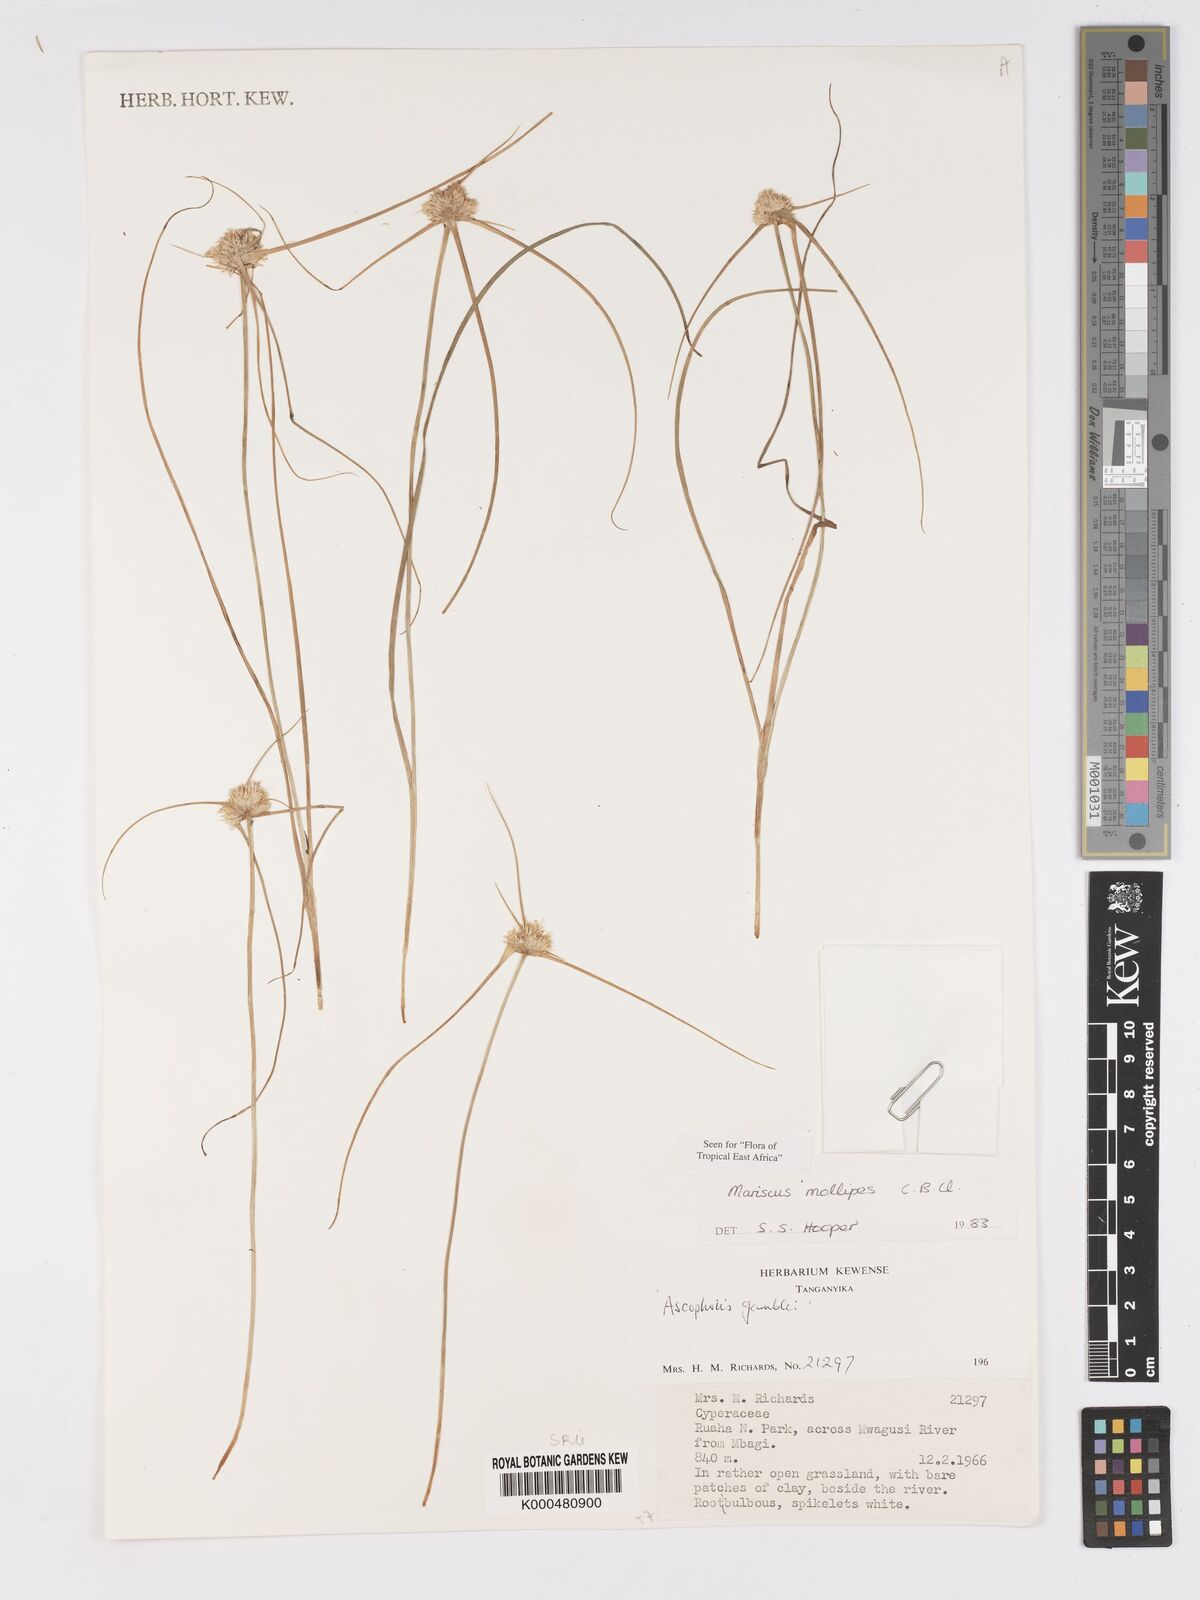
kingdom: Plantae
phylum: Tracheophyta
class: Liliopsida
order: Poales
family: Cyperaceae
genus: Cyperus
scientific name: Cyperus mollipes
